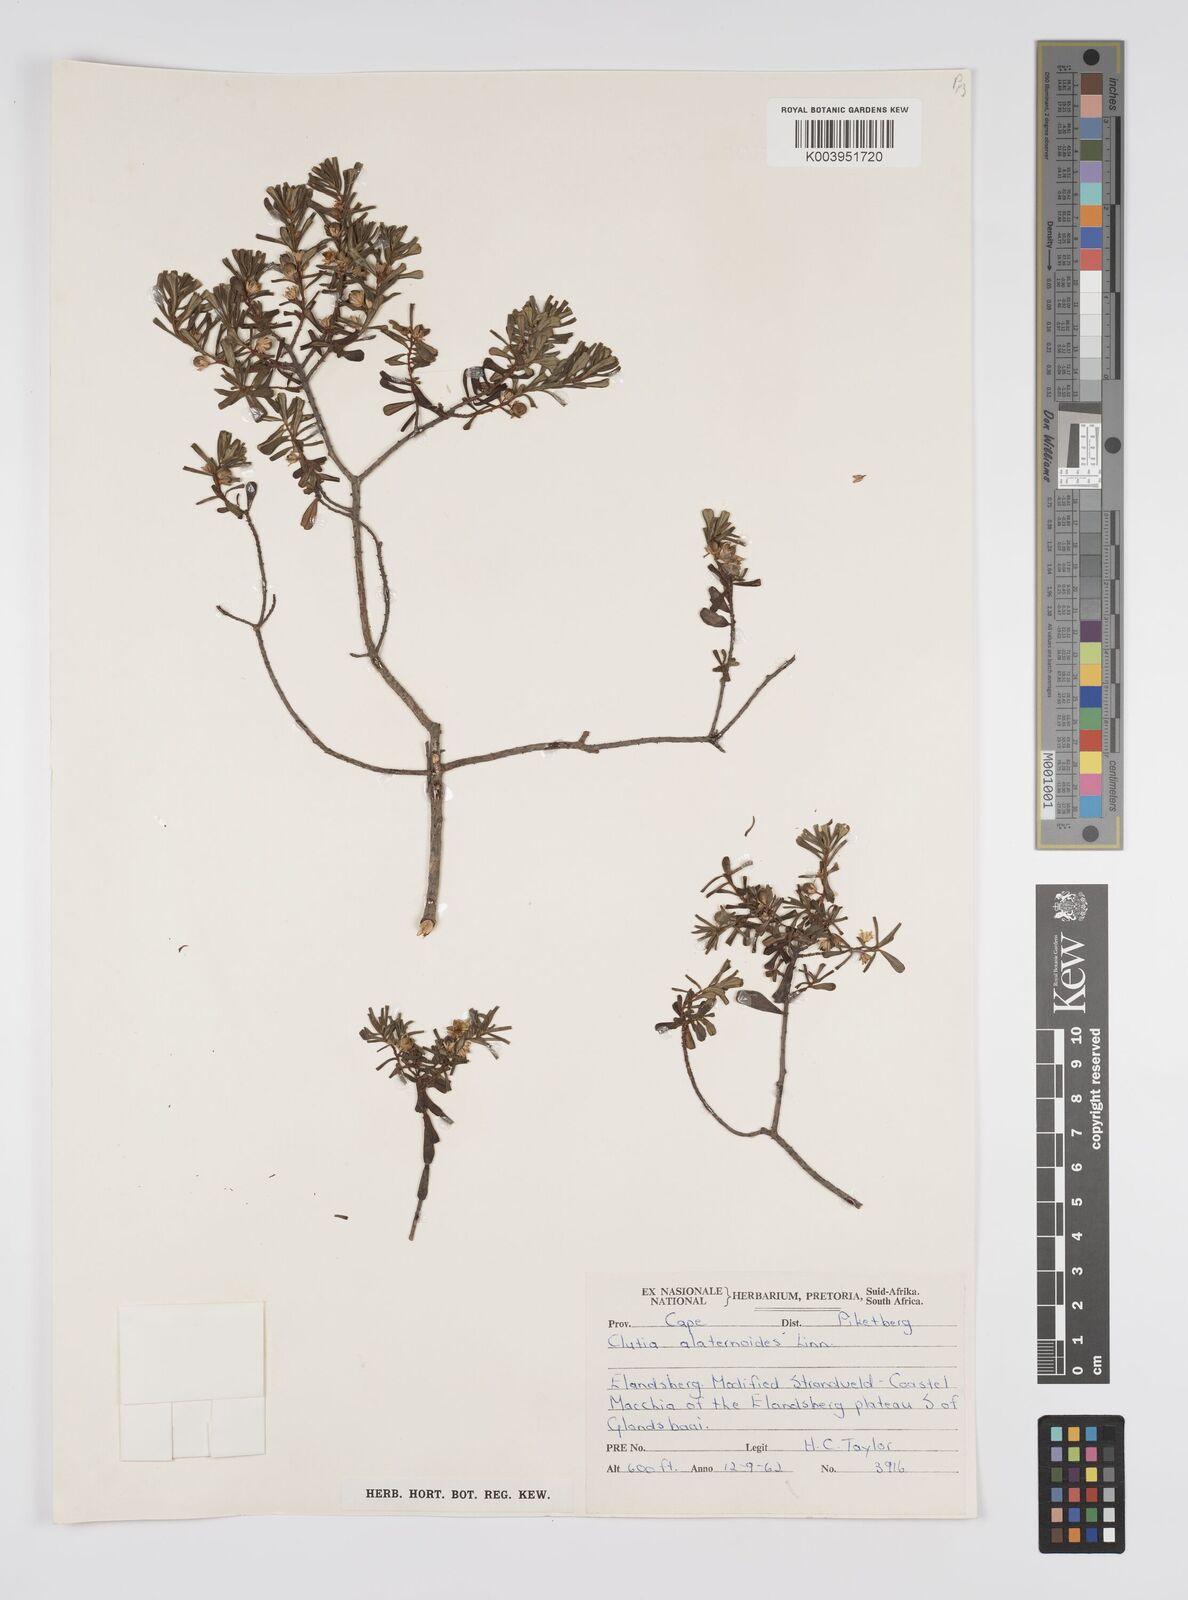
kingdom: Plantae
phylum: Tracheophyta
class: Magnoliopsida
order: Malpighiales
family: Peraceae
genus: Clutia
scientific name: Clutia alaternoides
